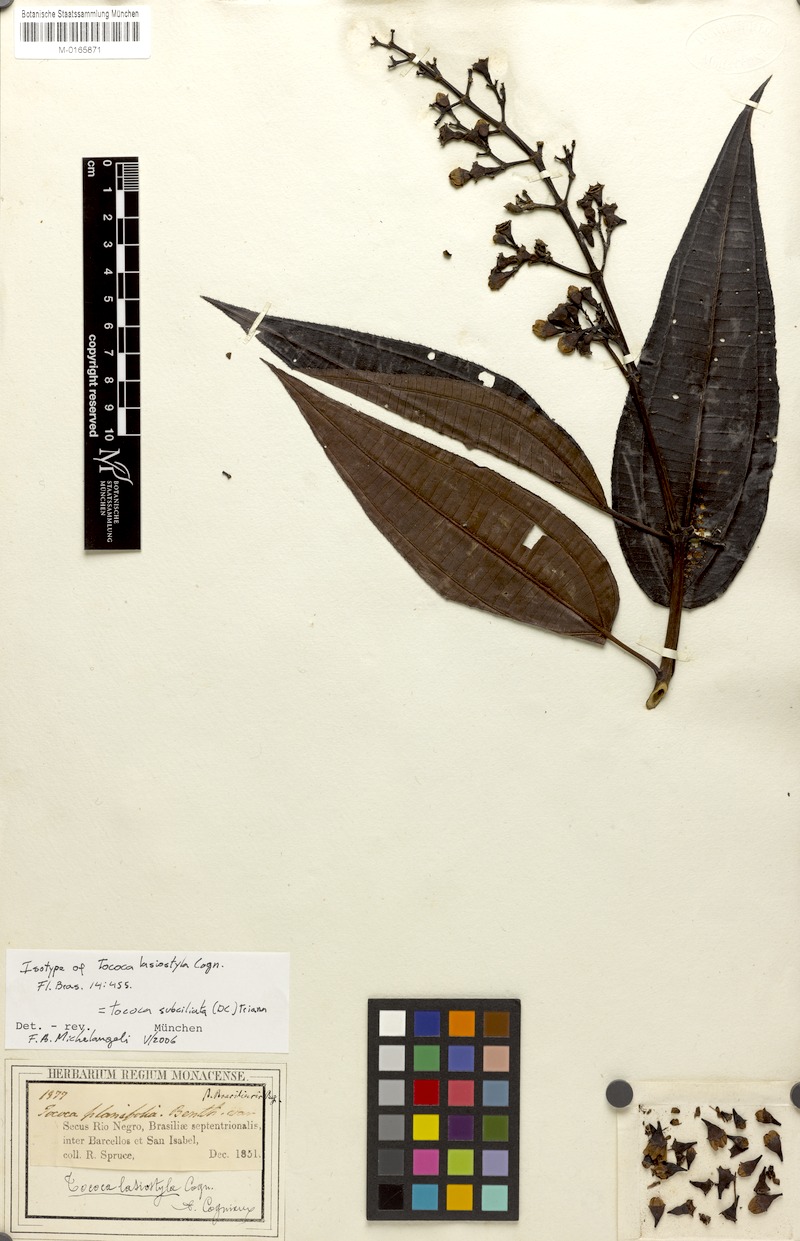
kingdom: Plantae
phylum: Tracheophyta
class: Magnoliopsida
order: Myrtales
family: Melastomataceae
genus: Miconia
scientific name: Miconia subciliata
